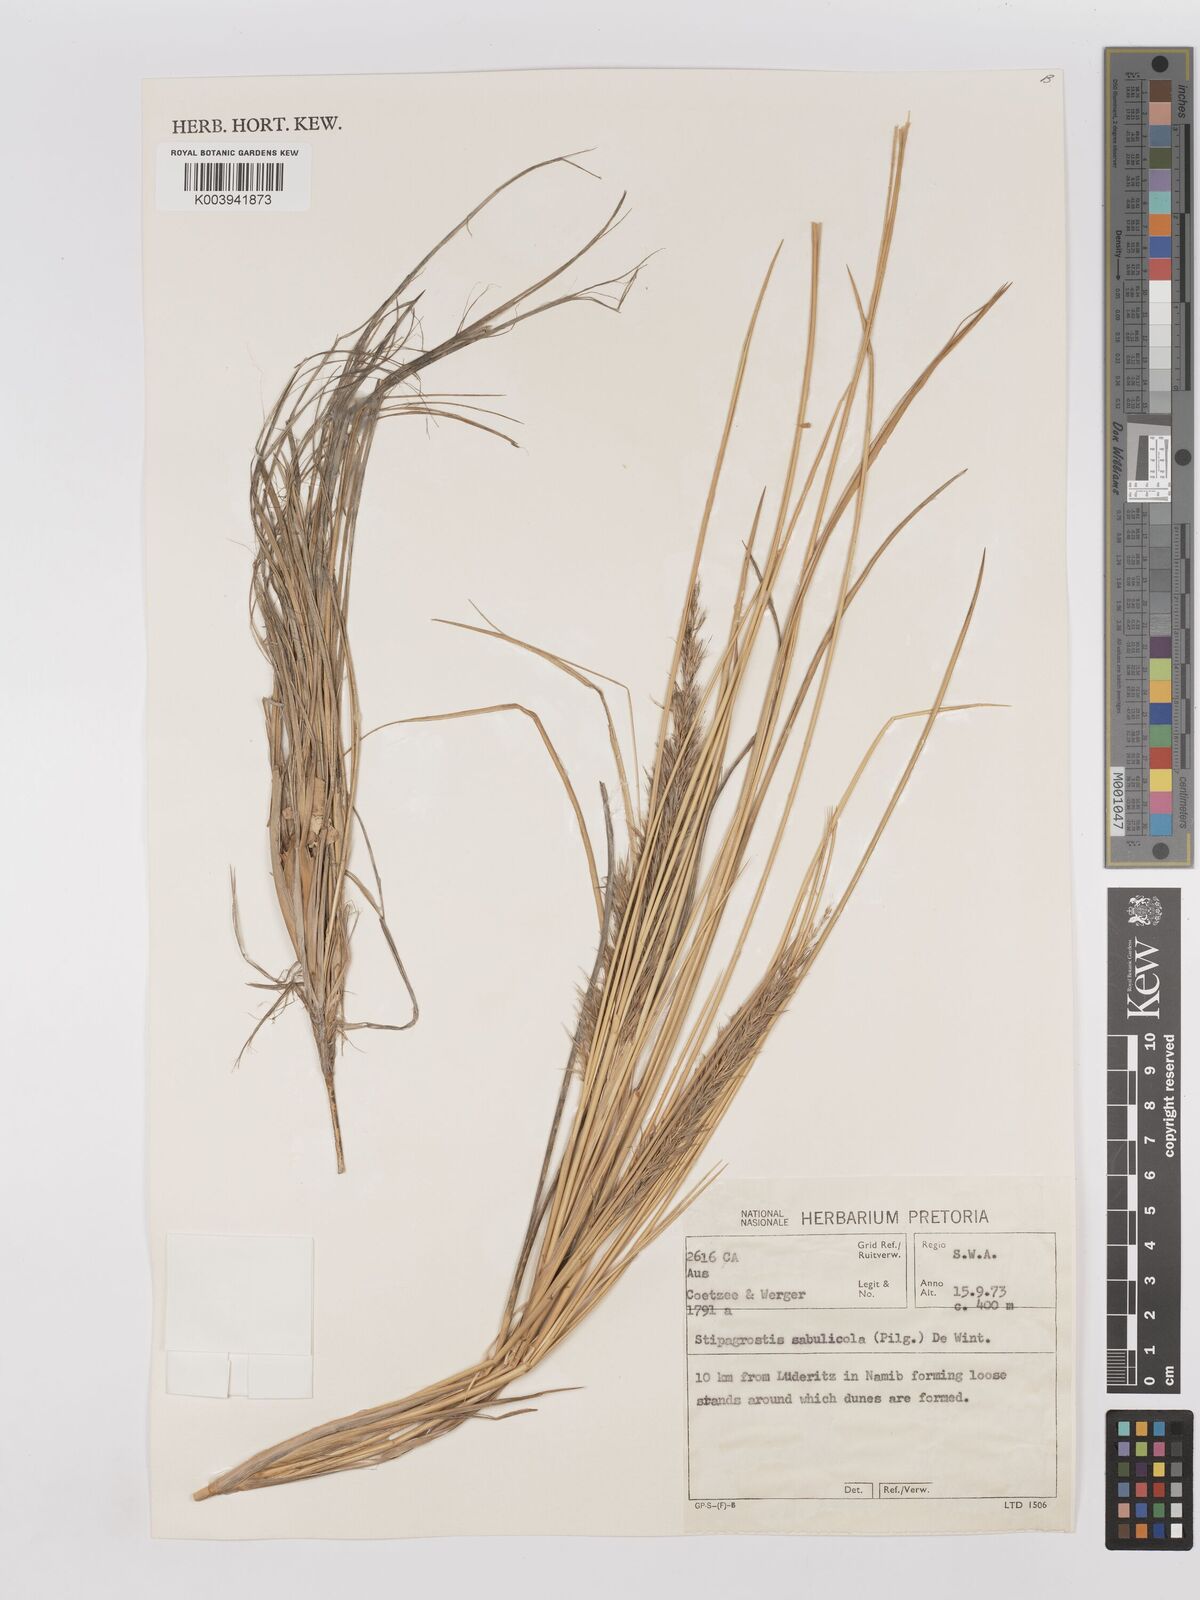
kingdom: Plantae
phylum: Tracheophyta
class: Liliopsida
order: Poales
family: Poaceae
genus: Stipagrostis
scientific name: Stipagrostis sabulicola
